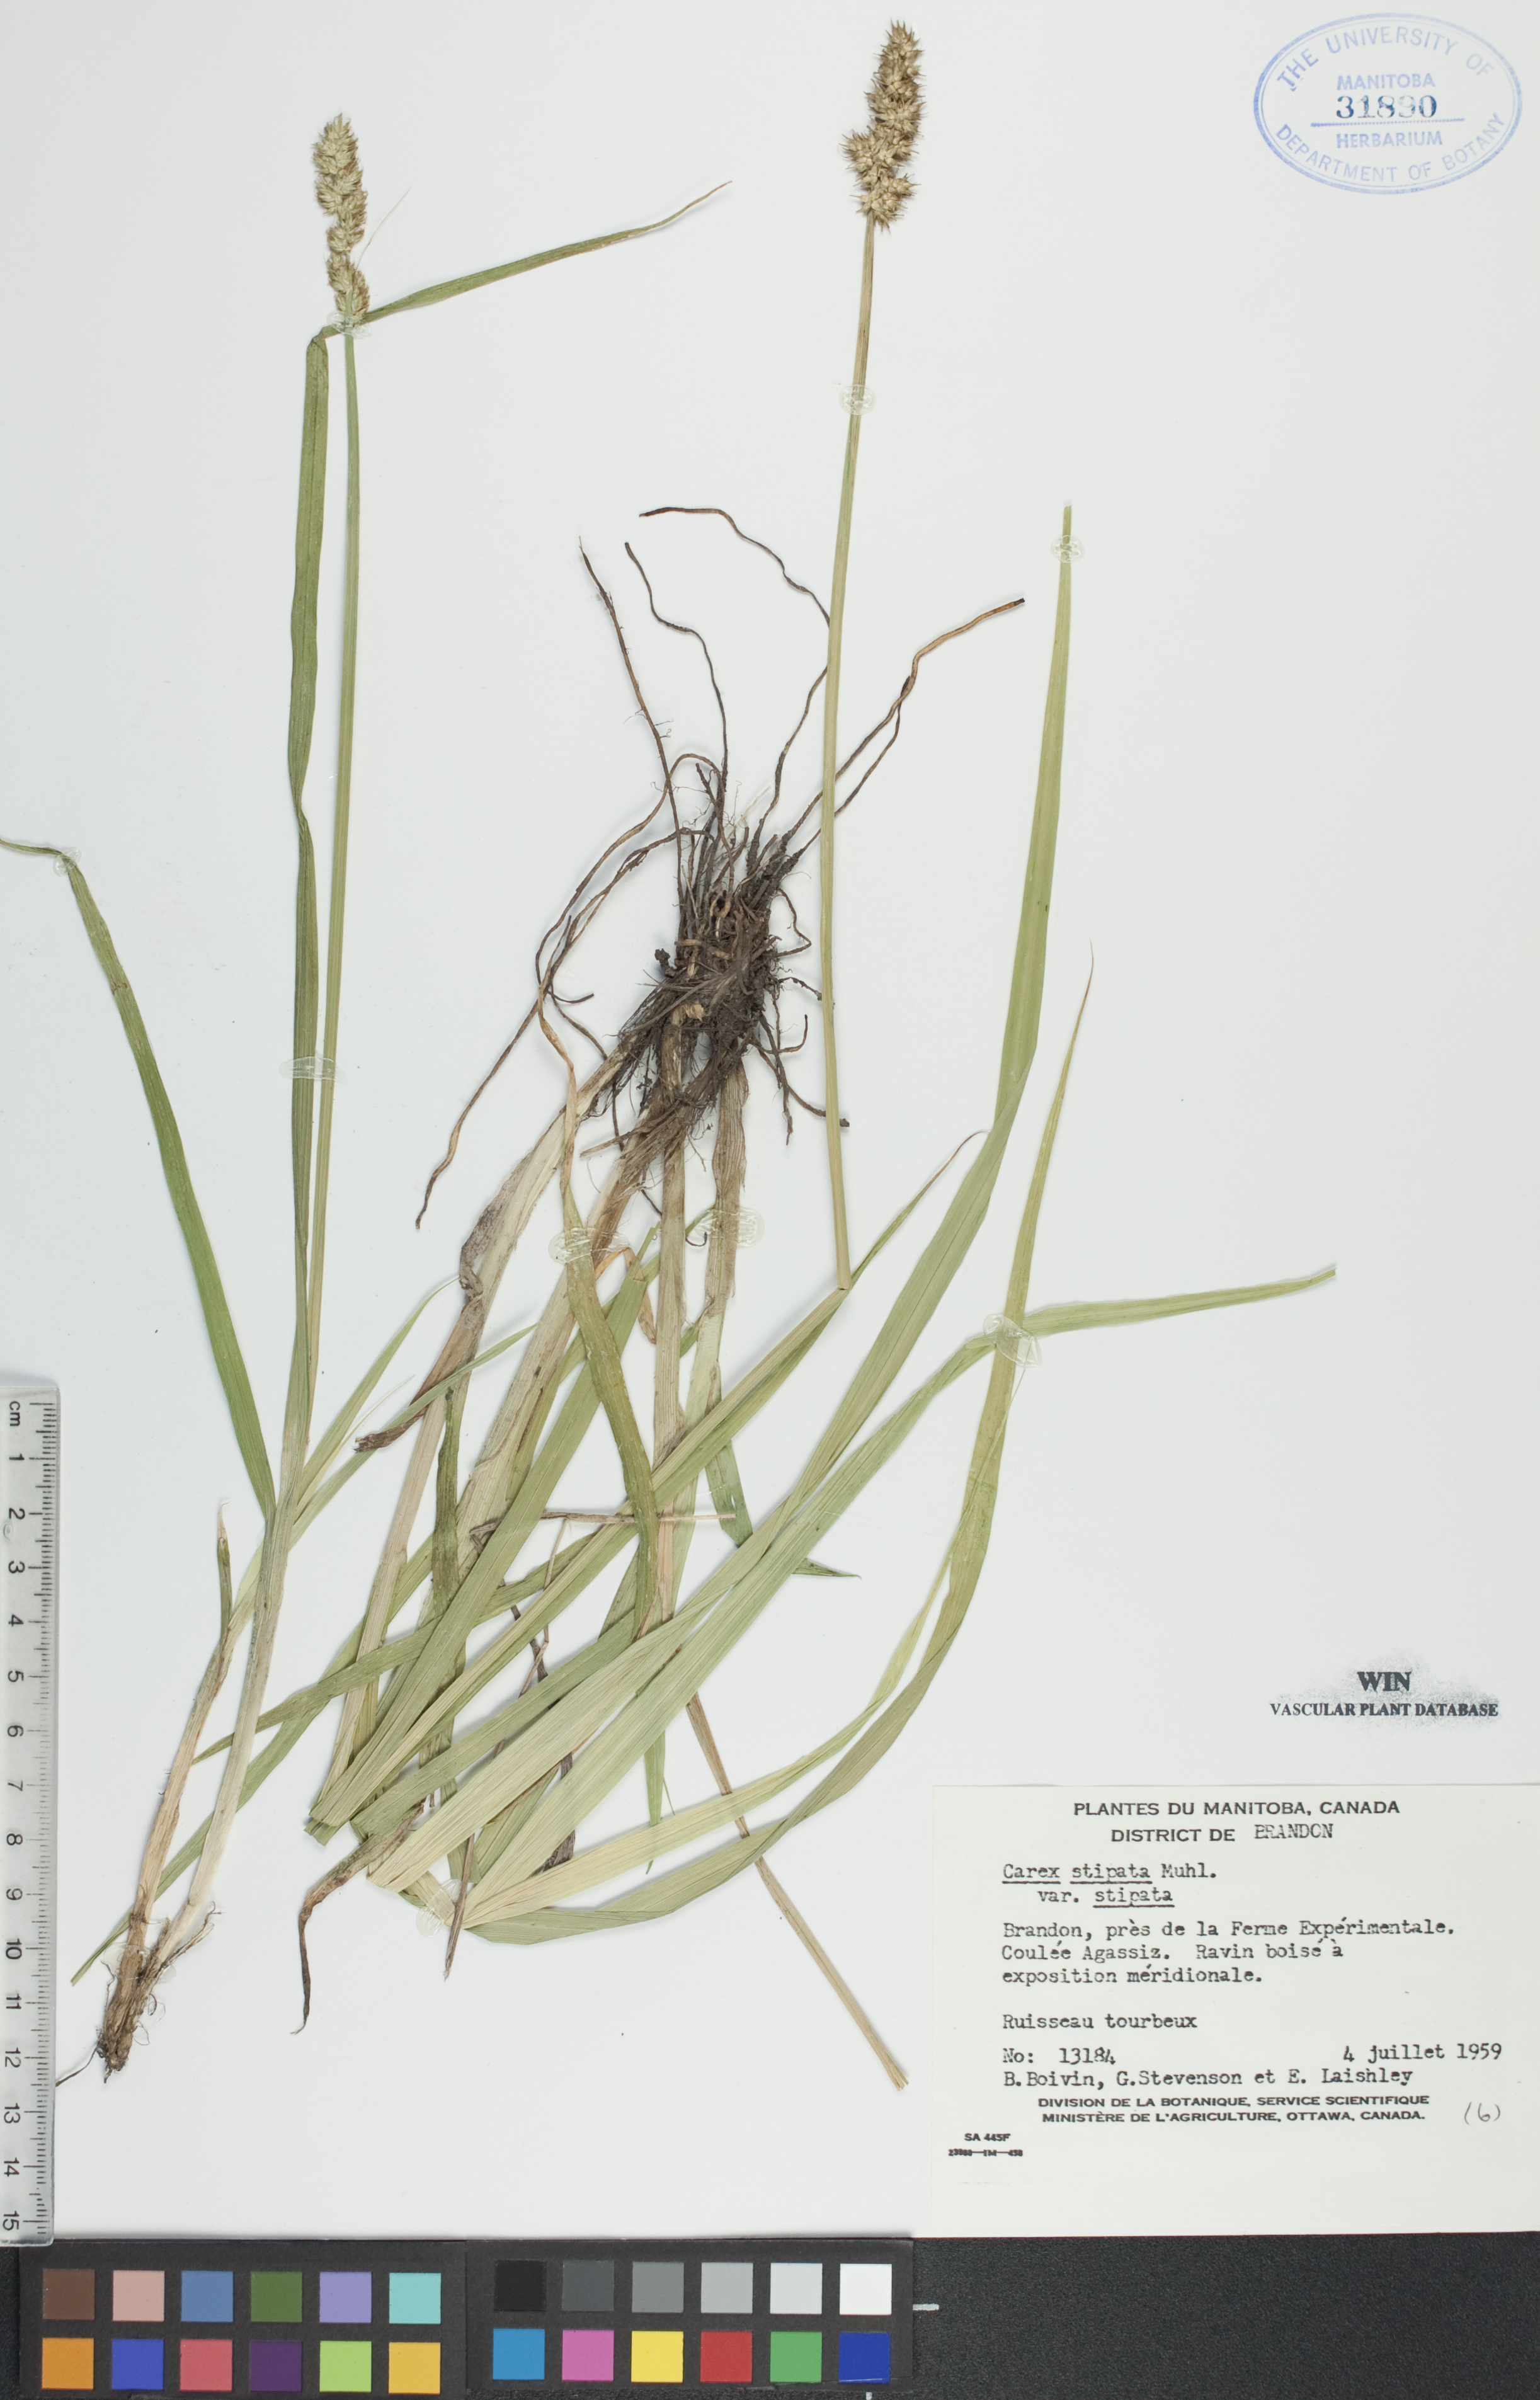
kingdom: Plantae
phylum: Tracheophyta
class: Liliopsida
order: Poales
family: Cyperaceae
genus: Carex
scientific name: Carex stipata
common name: Awl-fruited sedge
